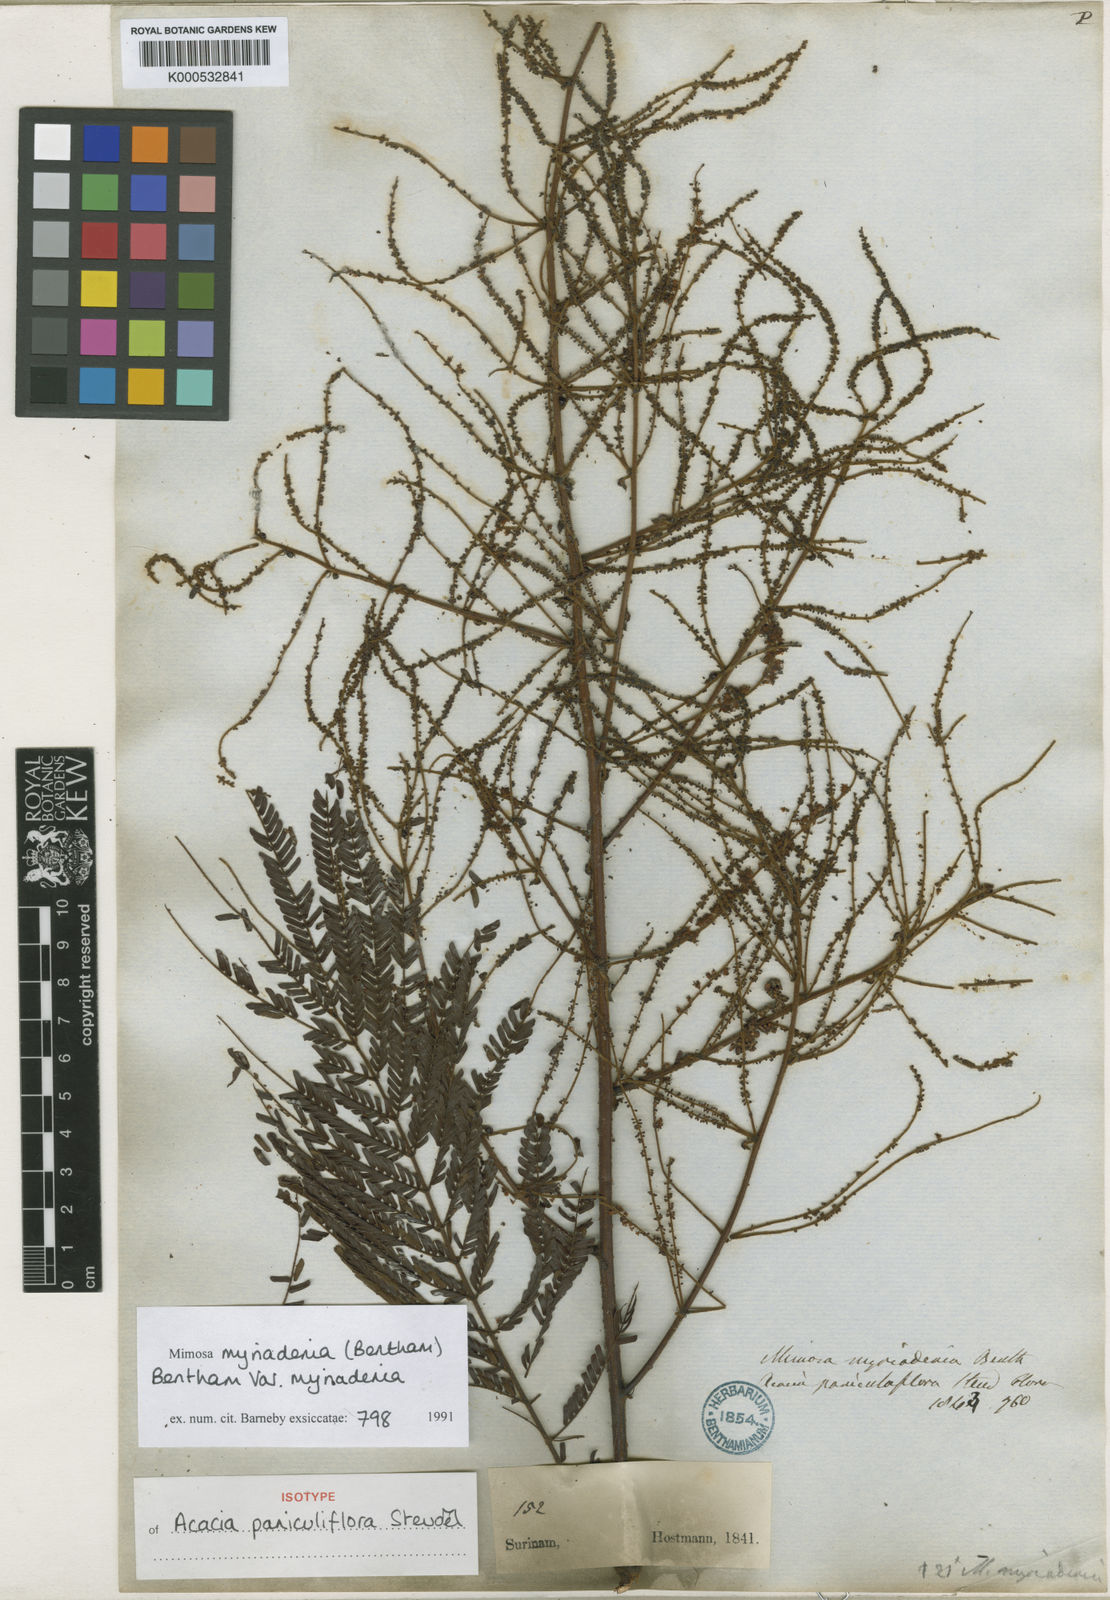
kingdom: Plantae
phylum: Tracheophyta
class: Magnoliopsida
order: Fabales
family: Fabaceae
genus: Mimosa
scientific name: Mimosa myriadenia
